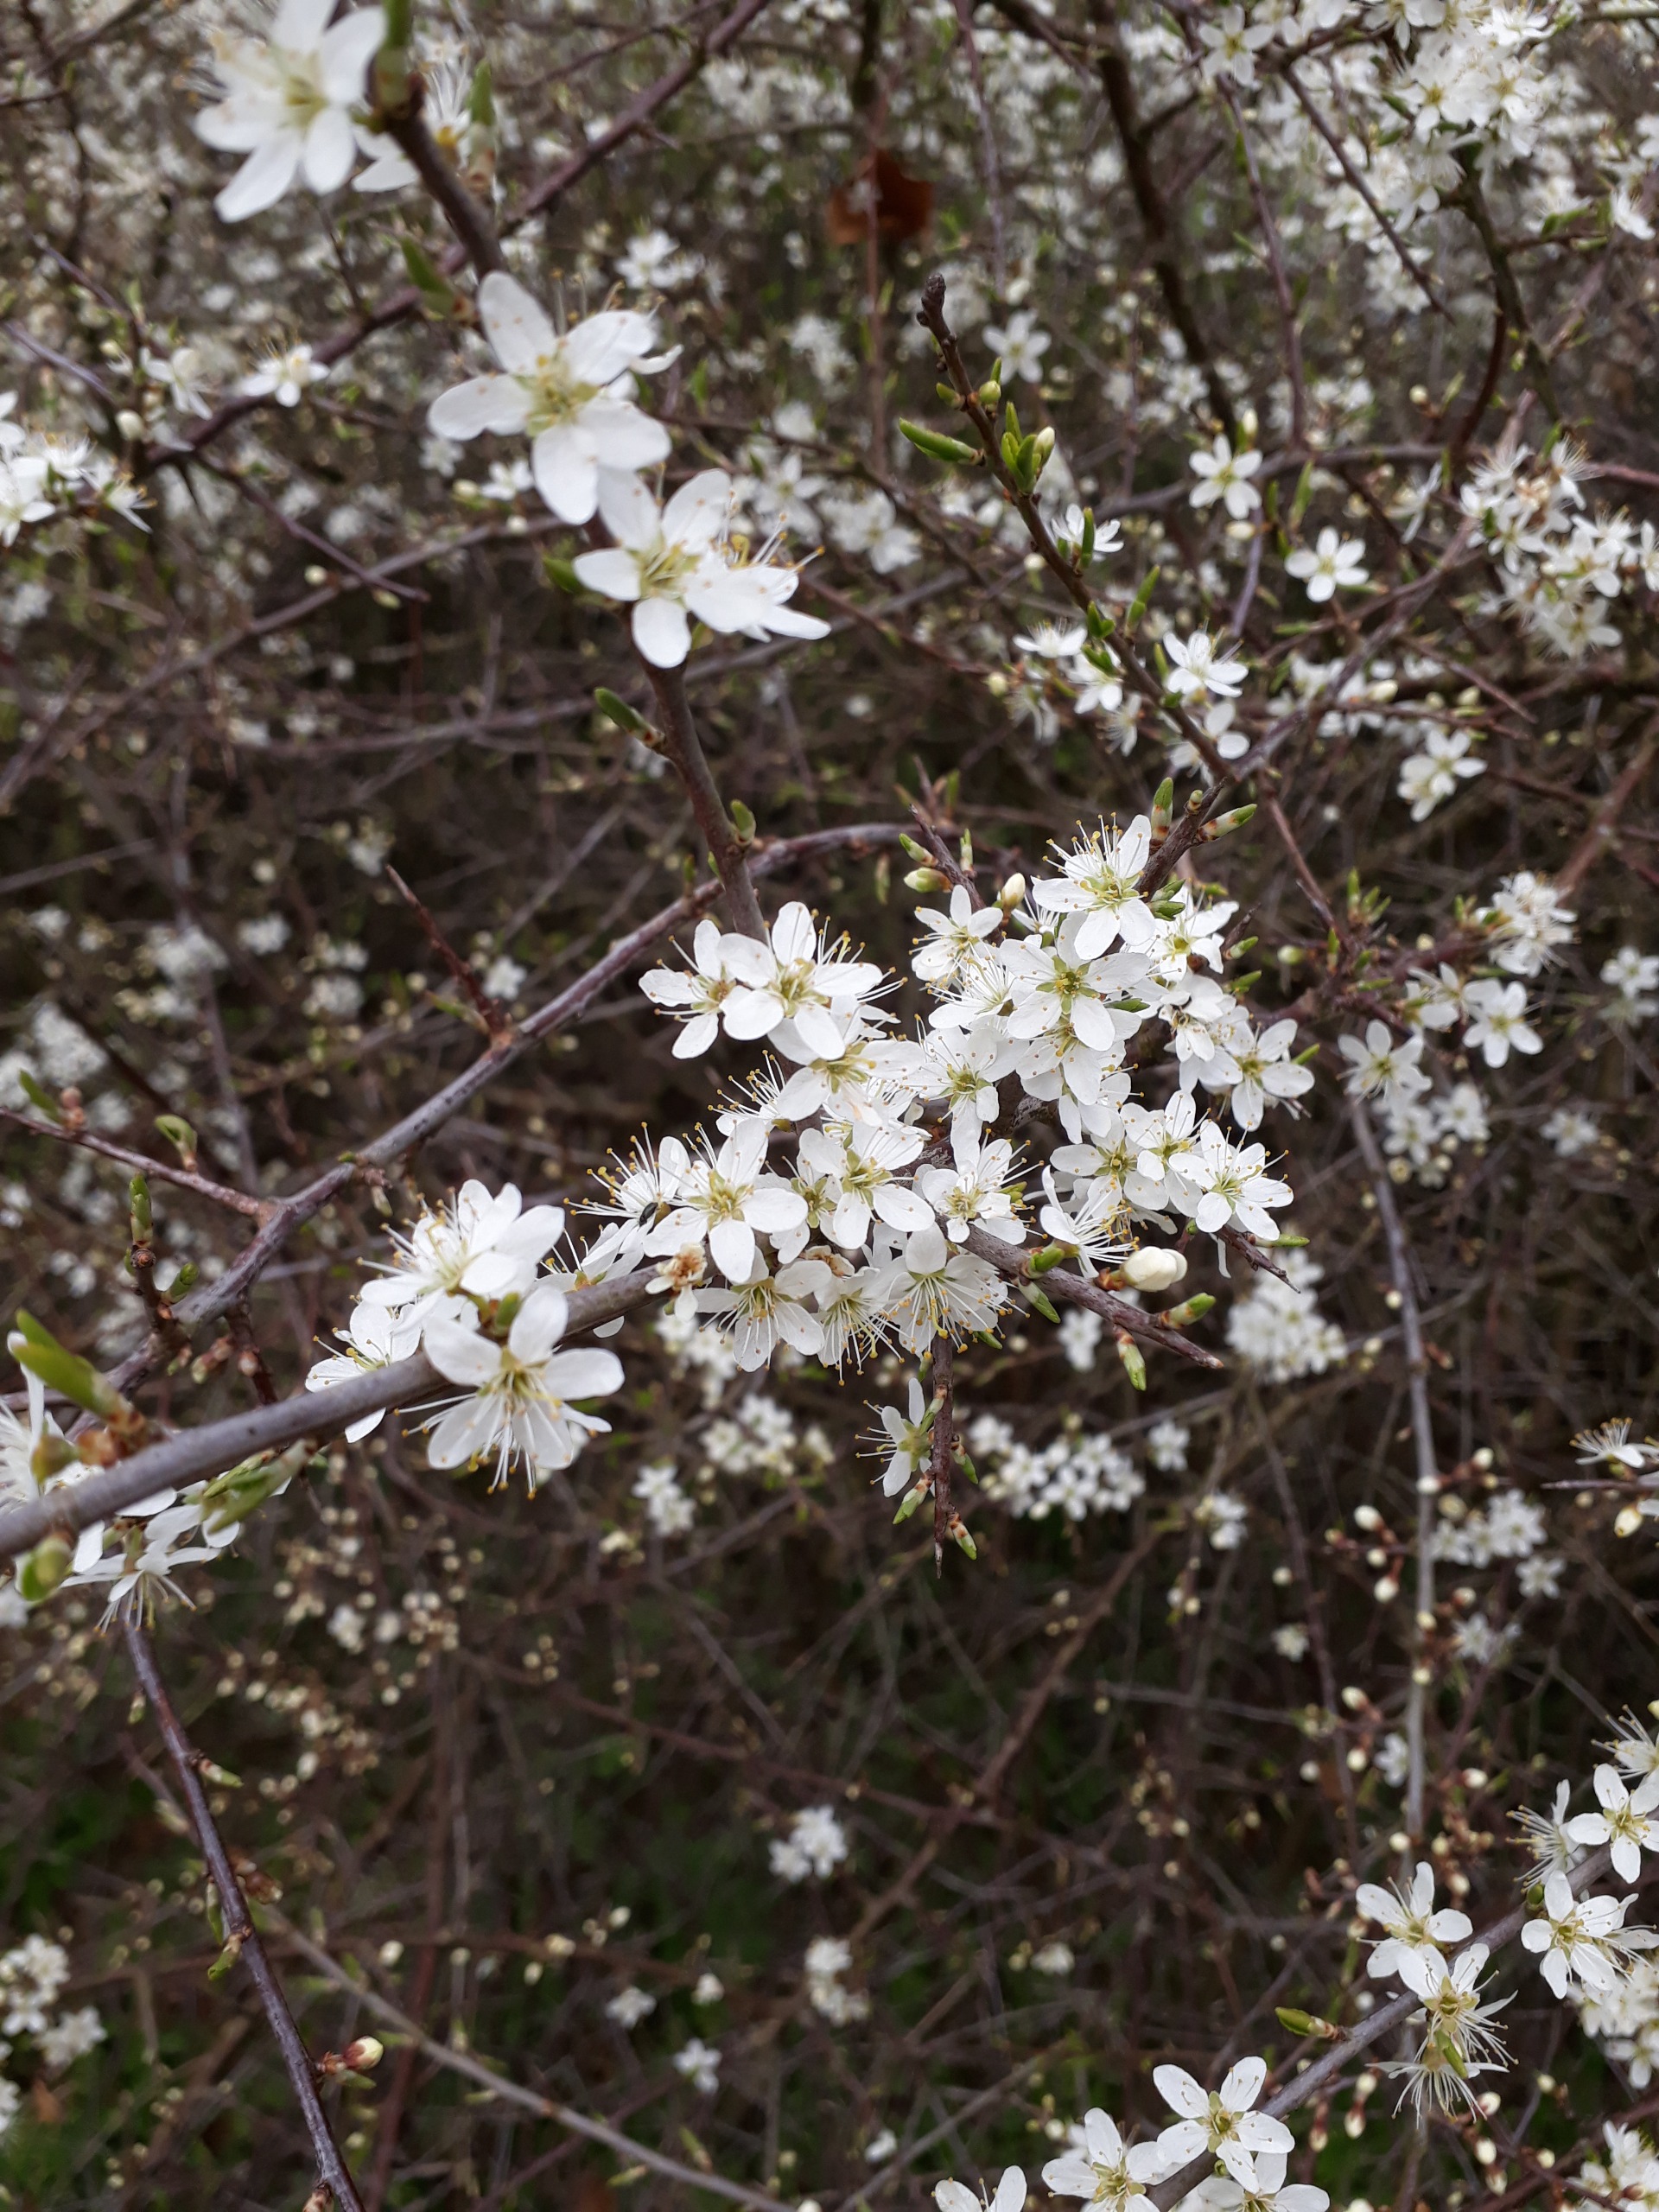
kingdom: Plantae
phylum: Tracheophyta
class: Magnoliopsida
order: Rosales
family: Rosaceae
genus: Prunus
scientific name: Prunus spinosa
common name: Slåen
